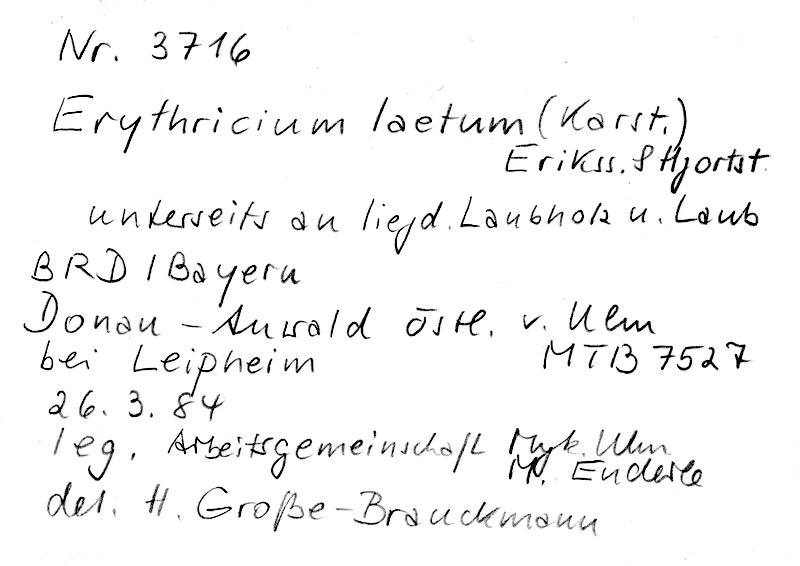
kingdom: Fungi
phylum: Basidiomycota
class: Agaricomycetes
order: Corticiales
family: Corticiaceae
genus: Erythricium
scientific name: Erythricium laetum
